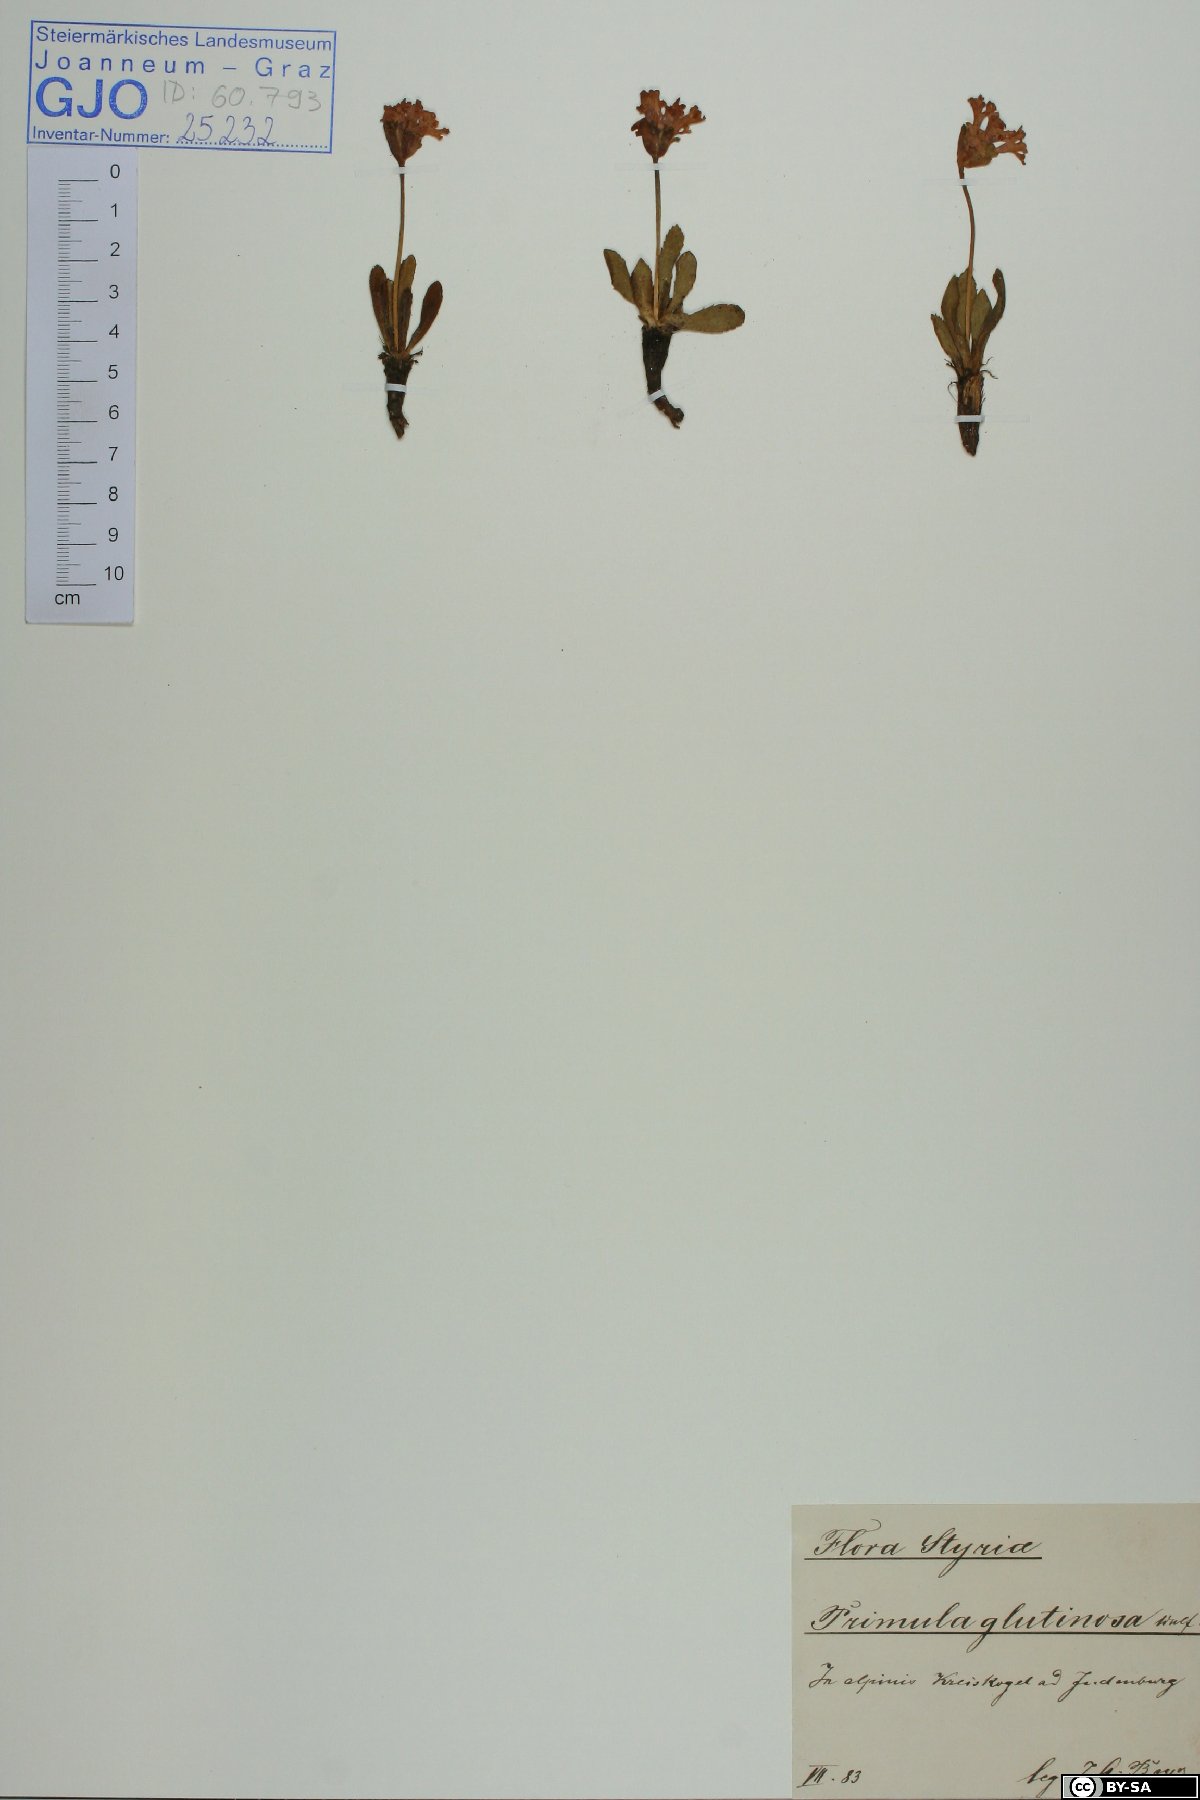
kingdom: Plantae
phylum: Tracheophyta
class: Magnoliopsida
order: Ericales
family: Primulaceae
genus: Primula
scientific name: Primula glutinosa
